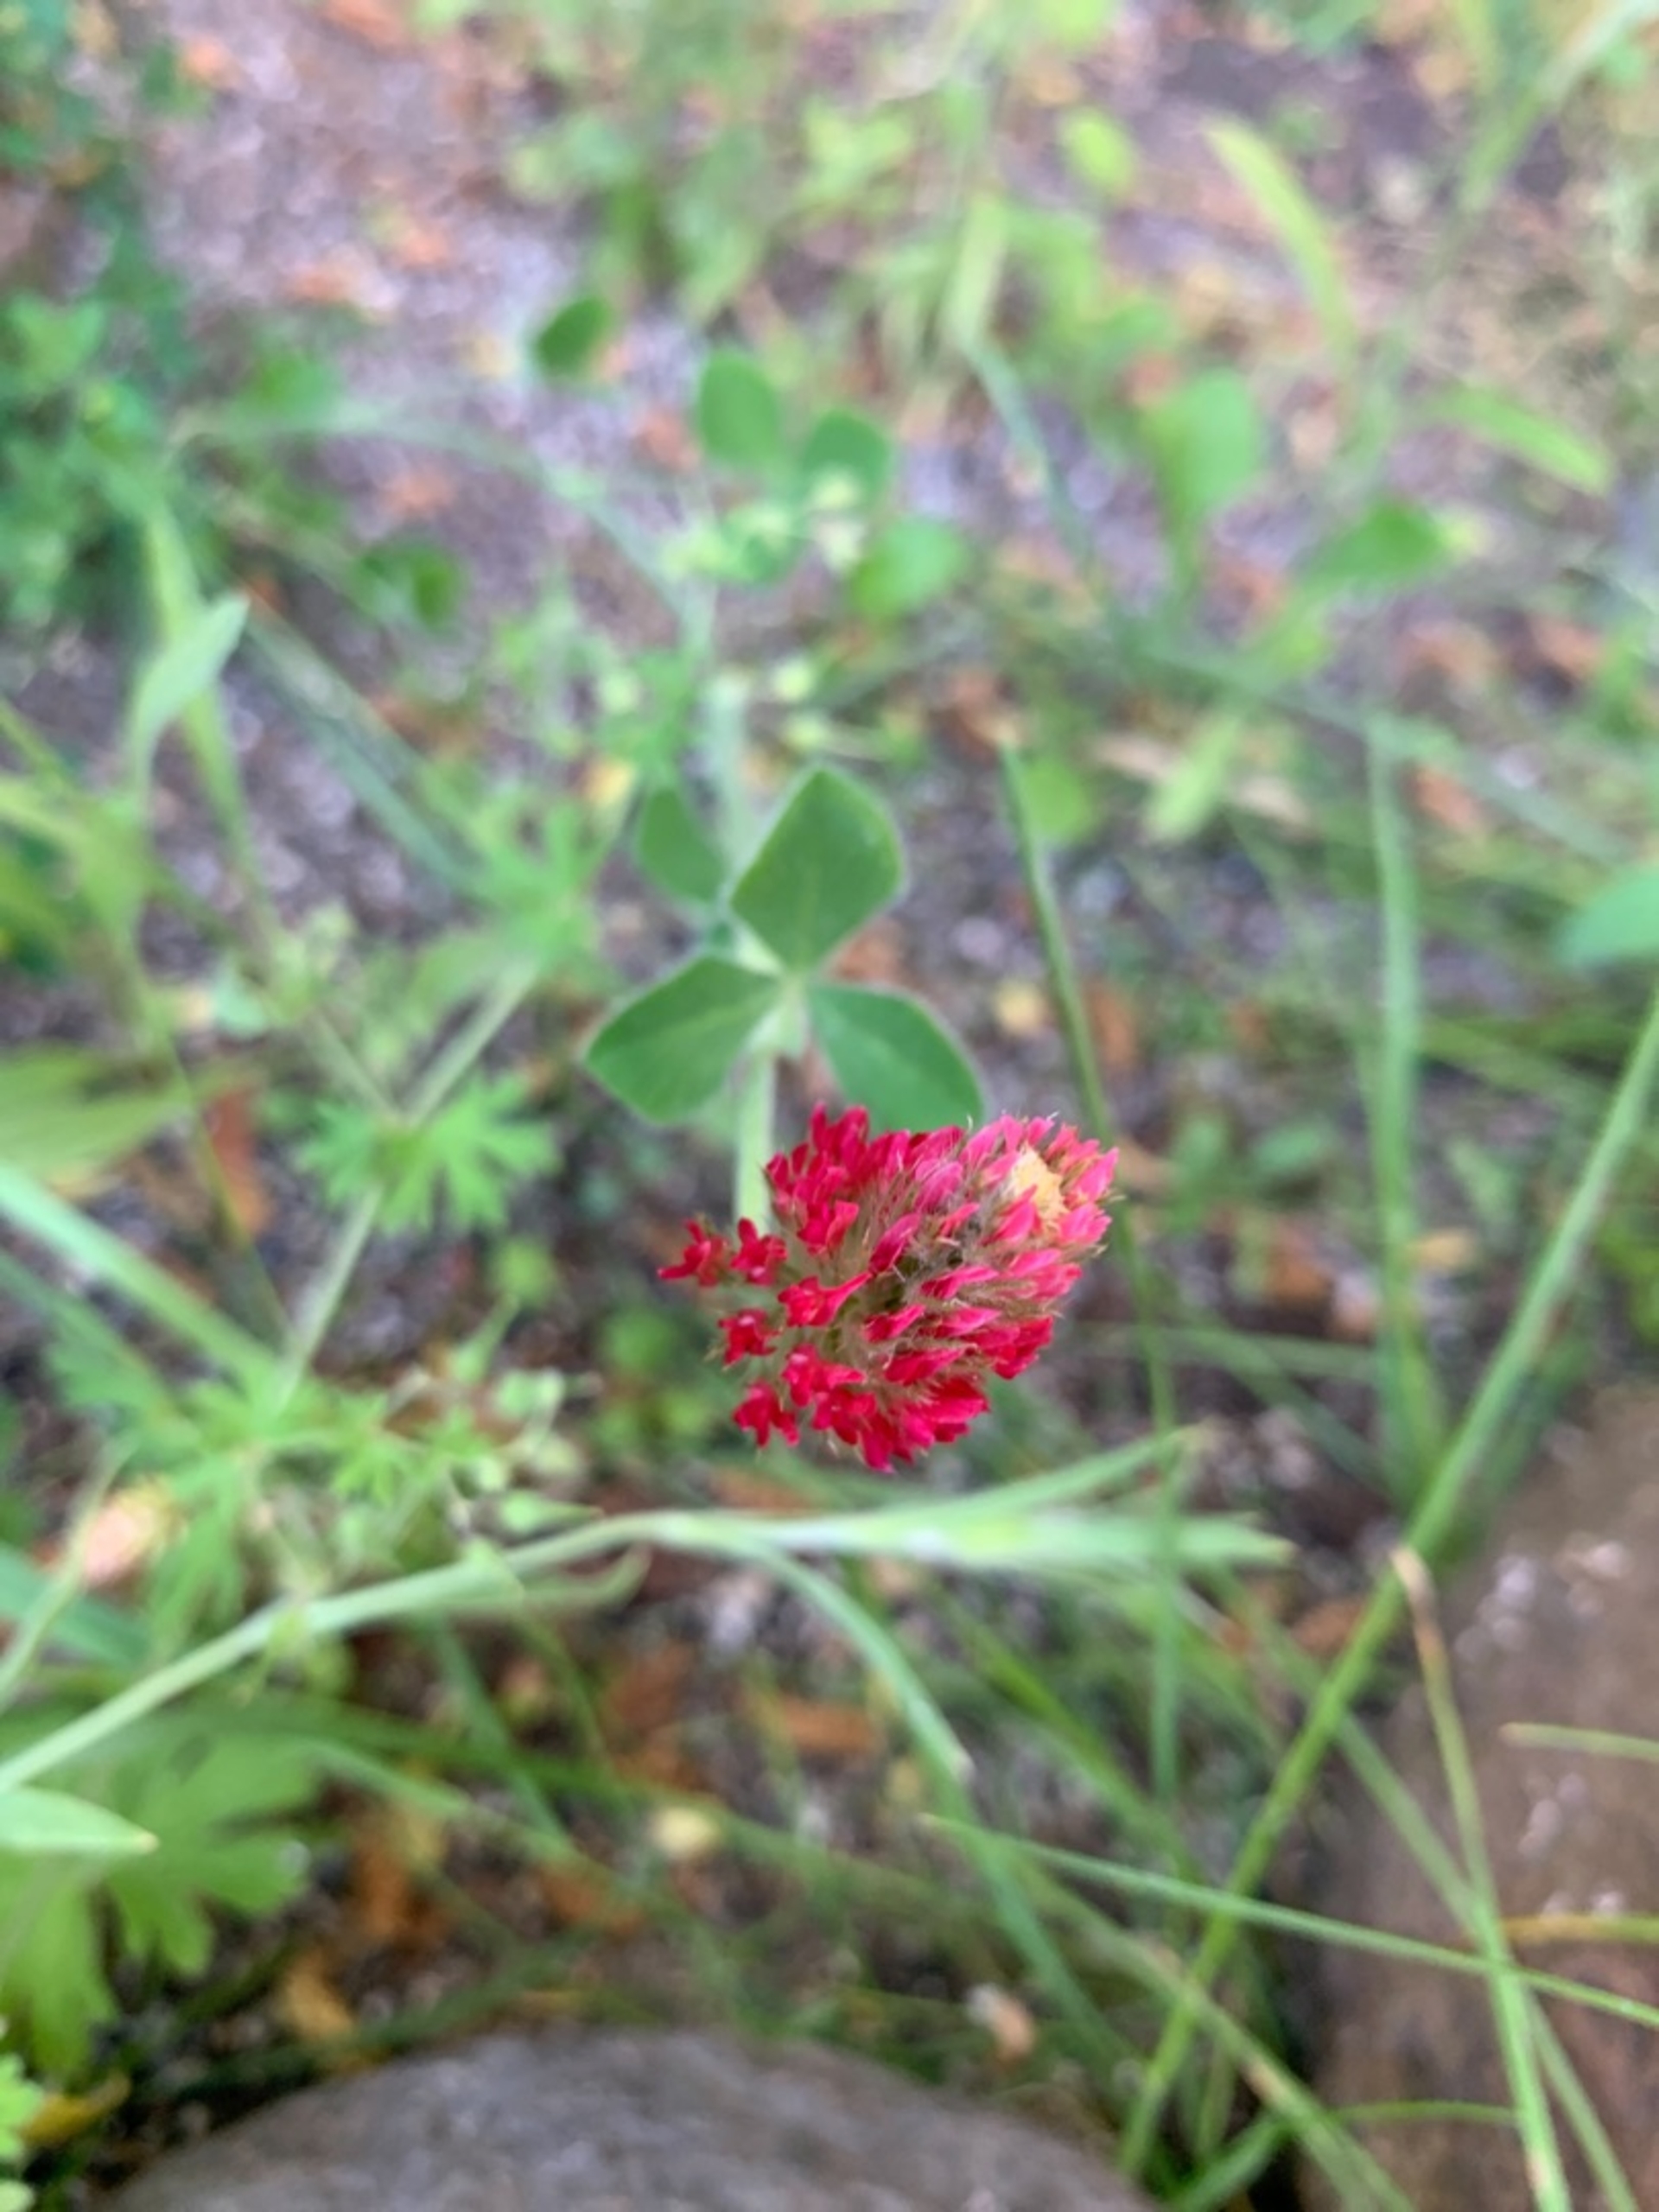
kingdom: Plantae
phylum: Tracheophyta
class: Magnoliopsida
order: Fabales
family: Fabaceae
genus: Trifolium
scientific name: Trifolium incarnatum
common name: Blod-kløver
